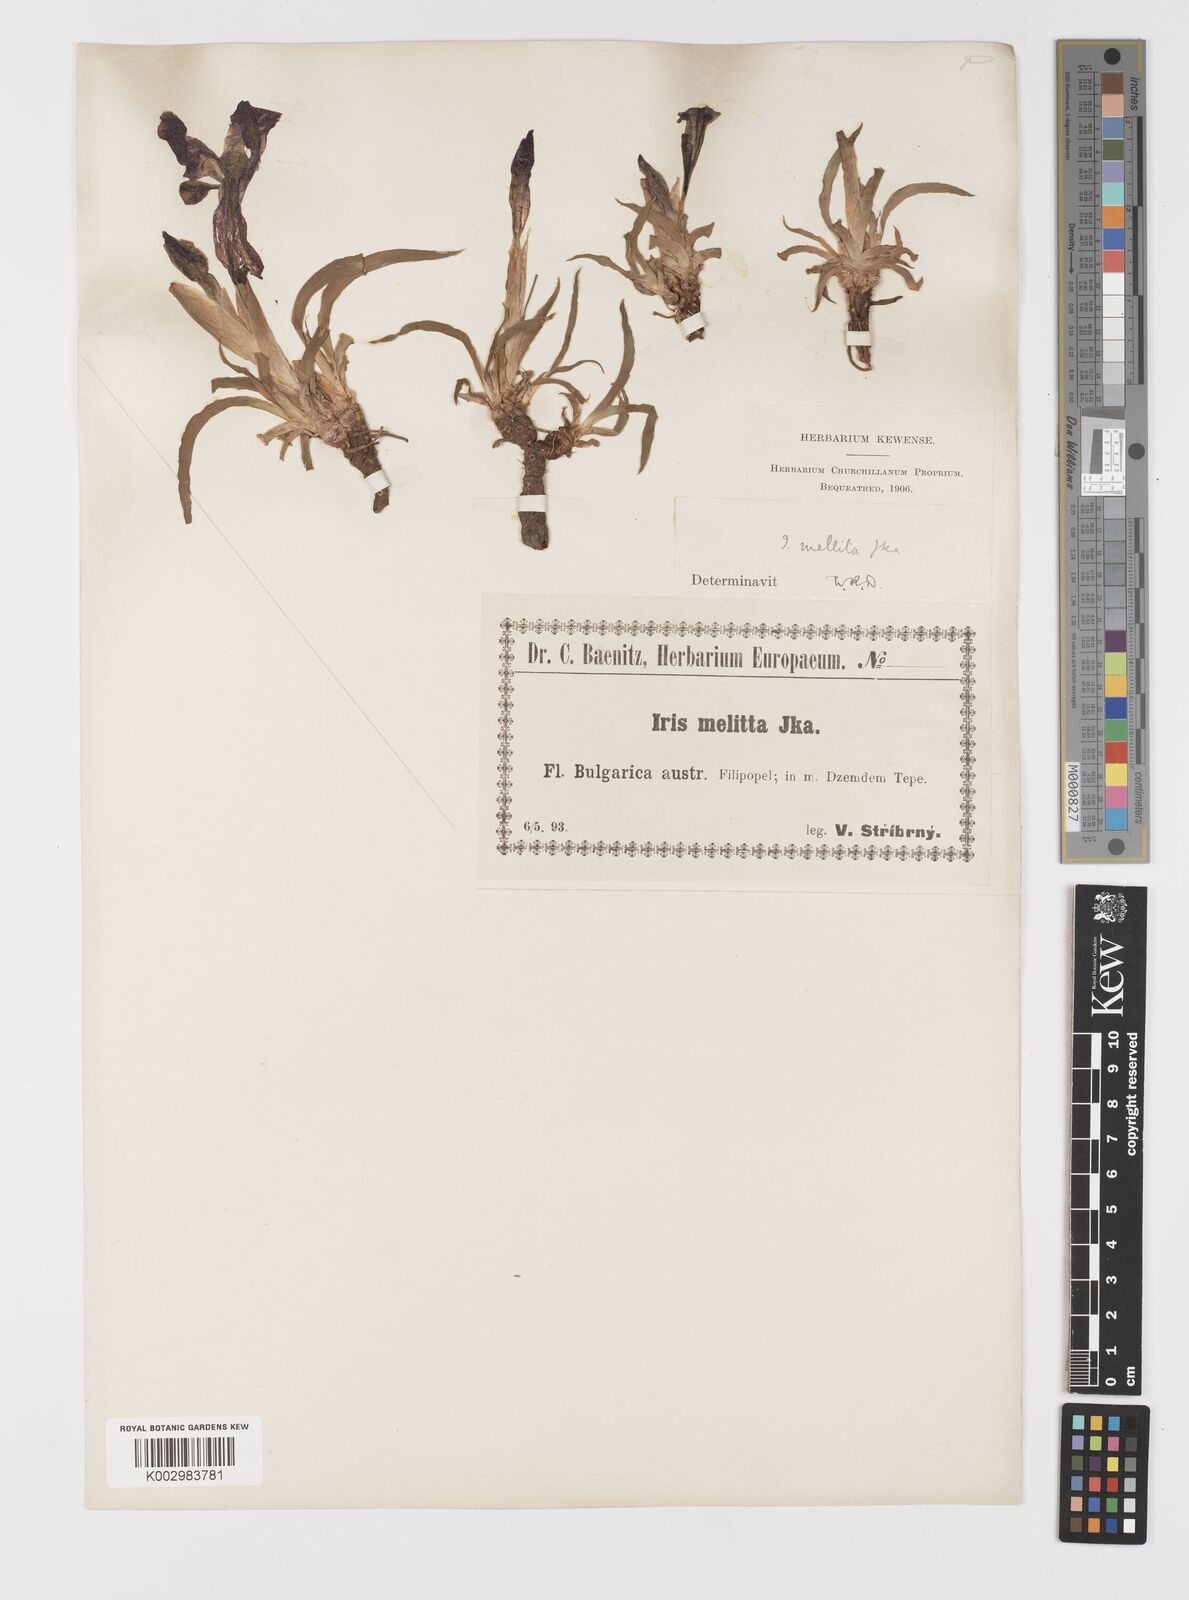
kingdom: Plantae
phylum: Tracheophyta
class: Liliopsida
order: Asparagales
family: Iridaceae
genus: Iris
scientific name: Iris suaveolens
